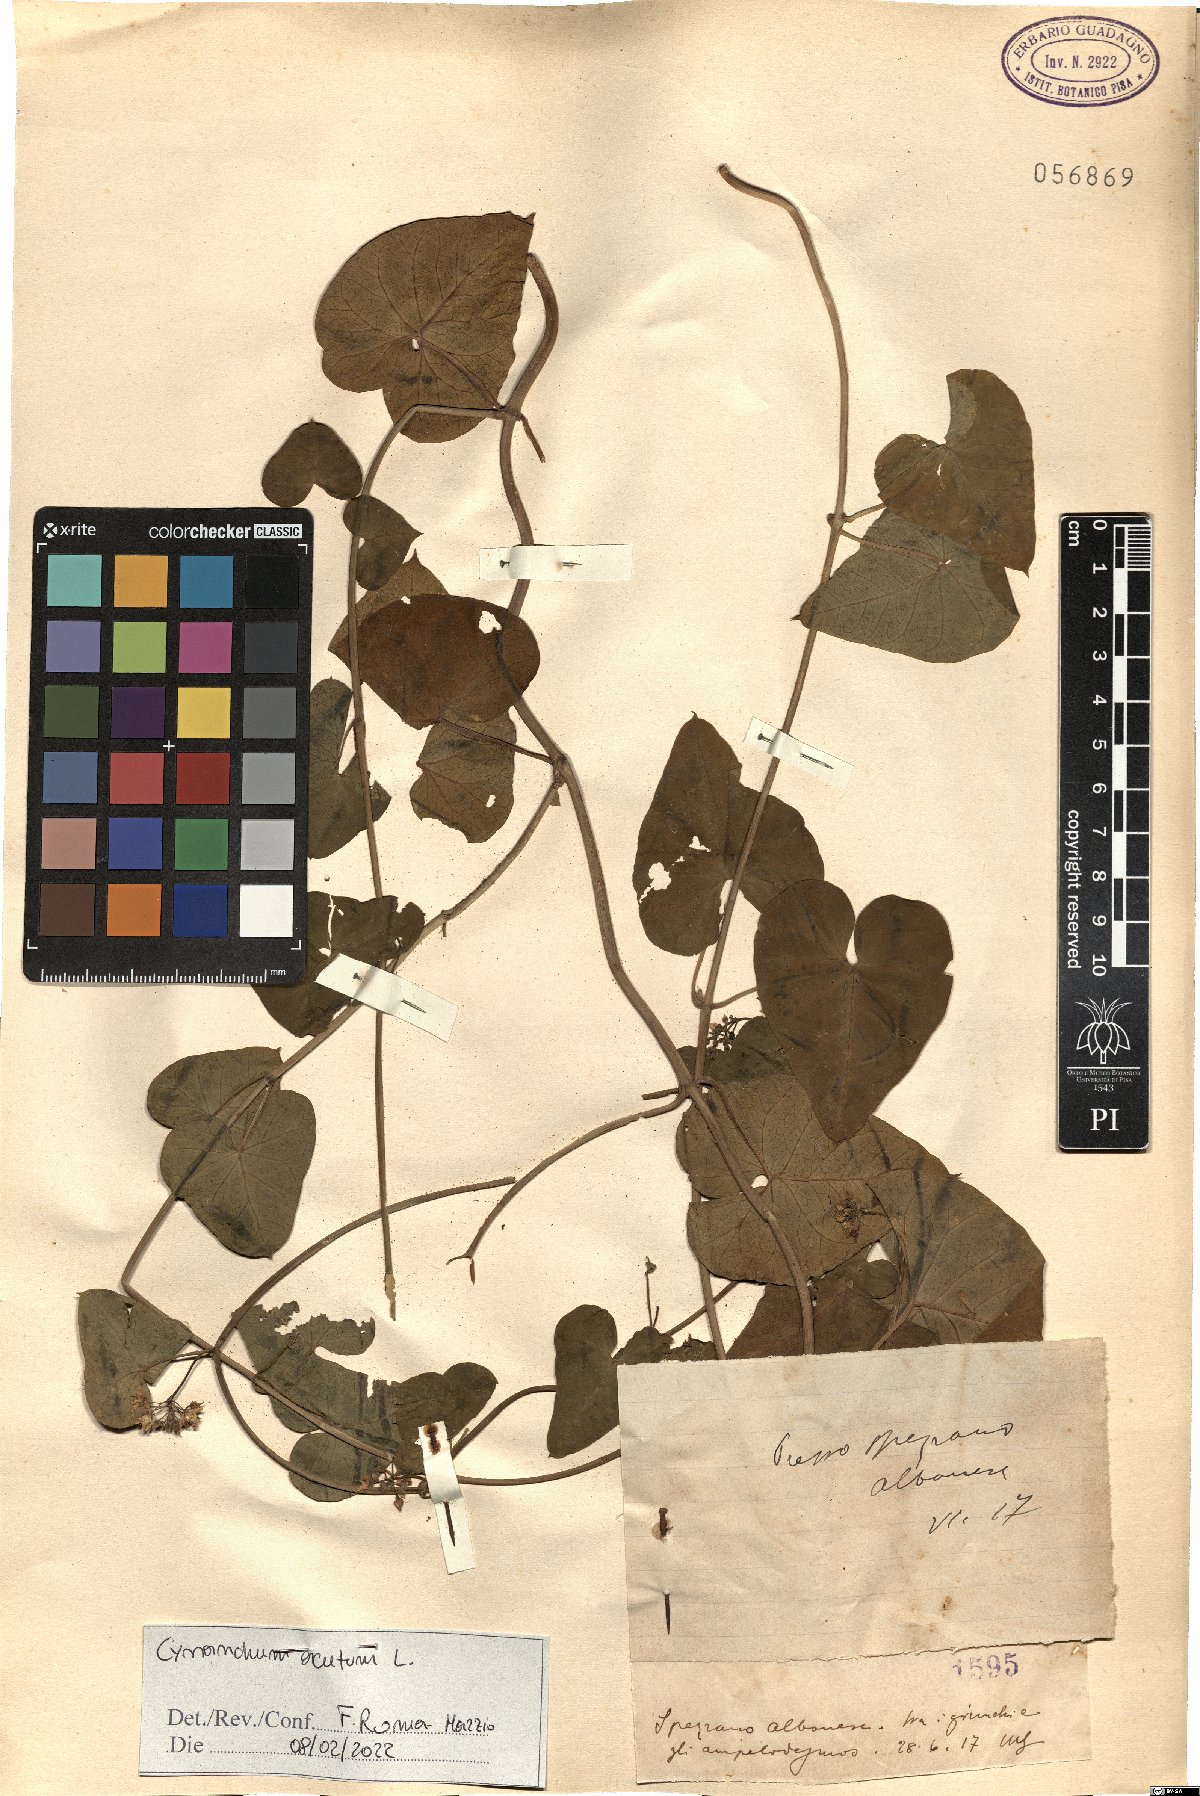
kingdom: Plantae
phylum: Tracheophyta
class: Magnoliopsida
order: Gentianales
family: Apocynaceae
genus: Cynanchum
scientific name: Cynanchum acutum
